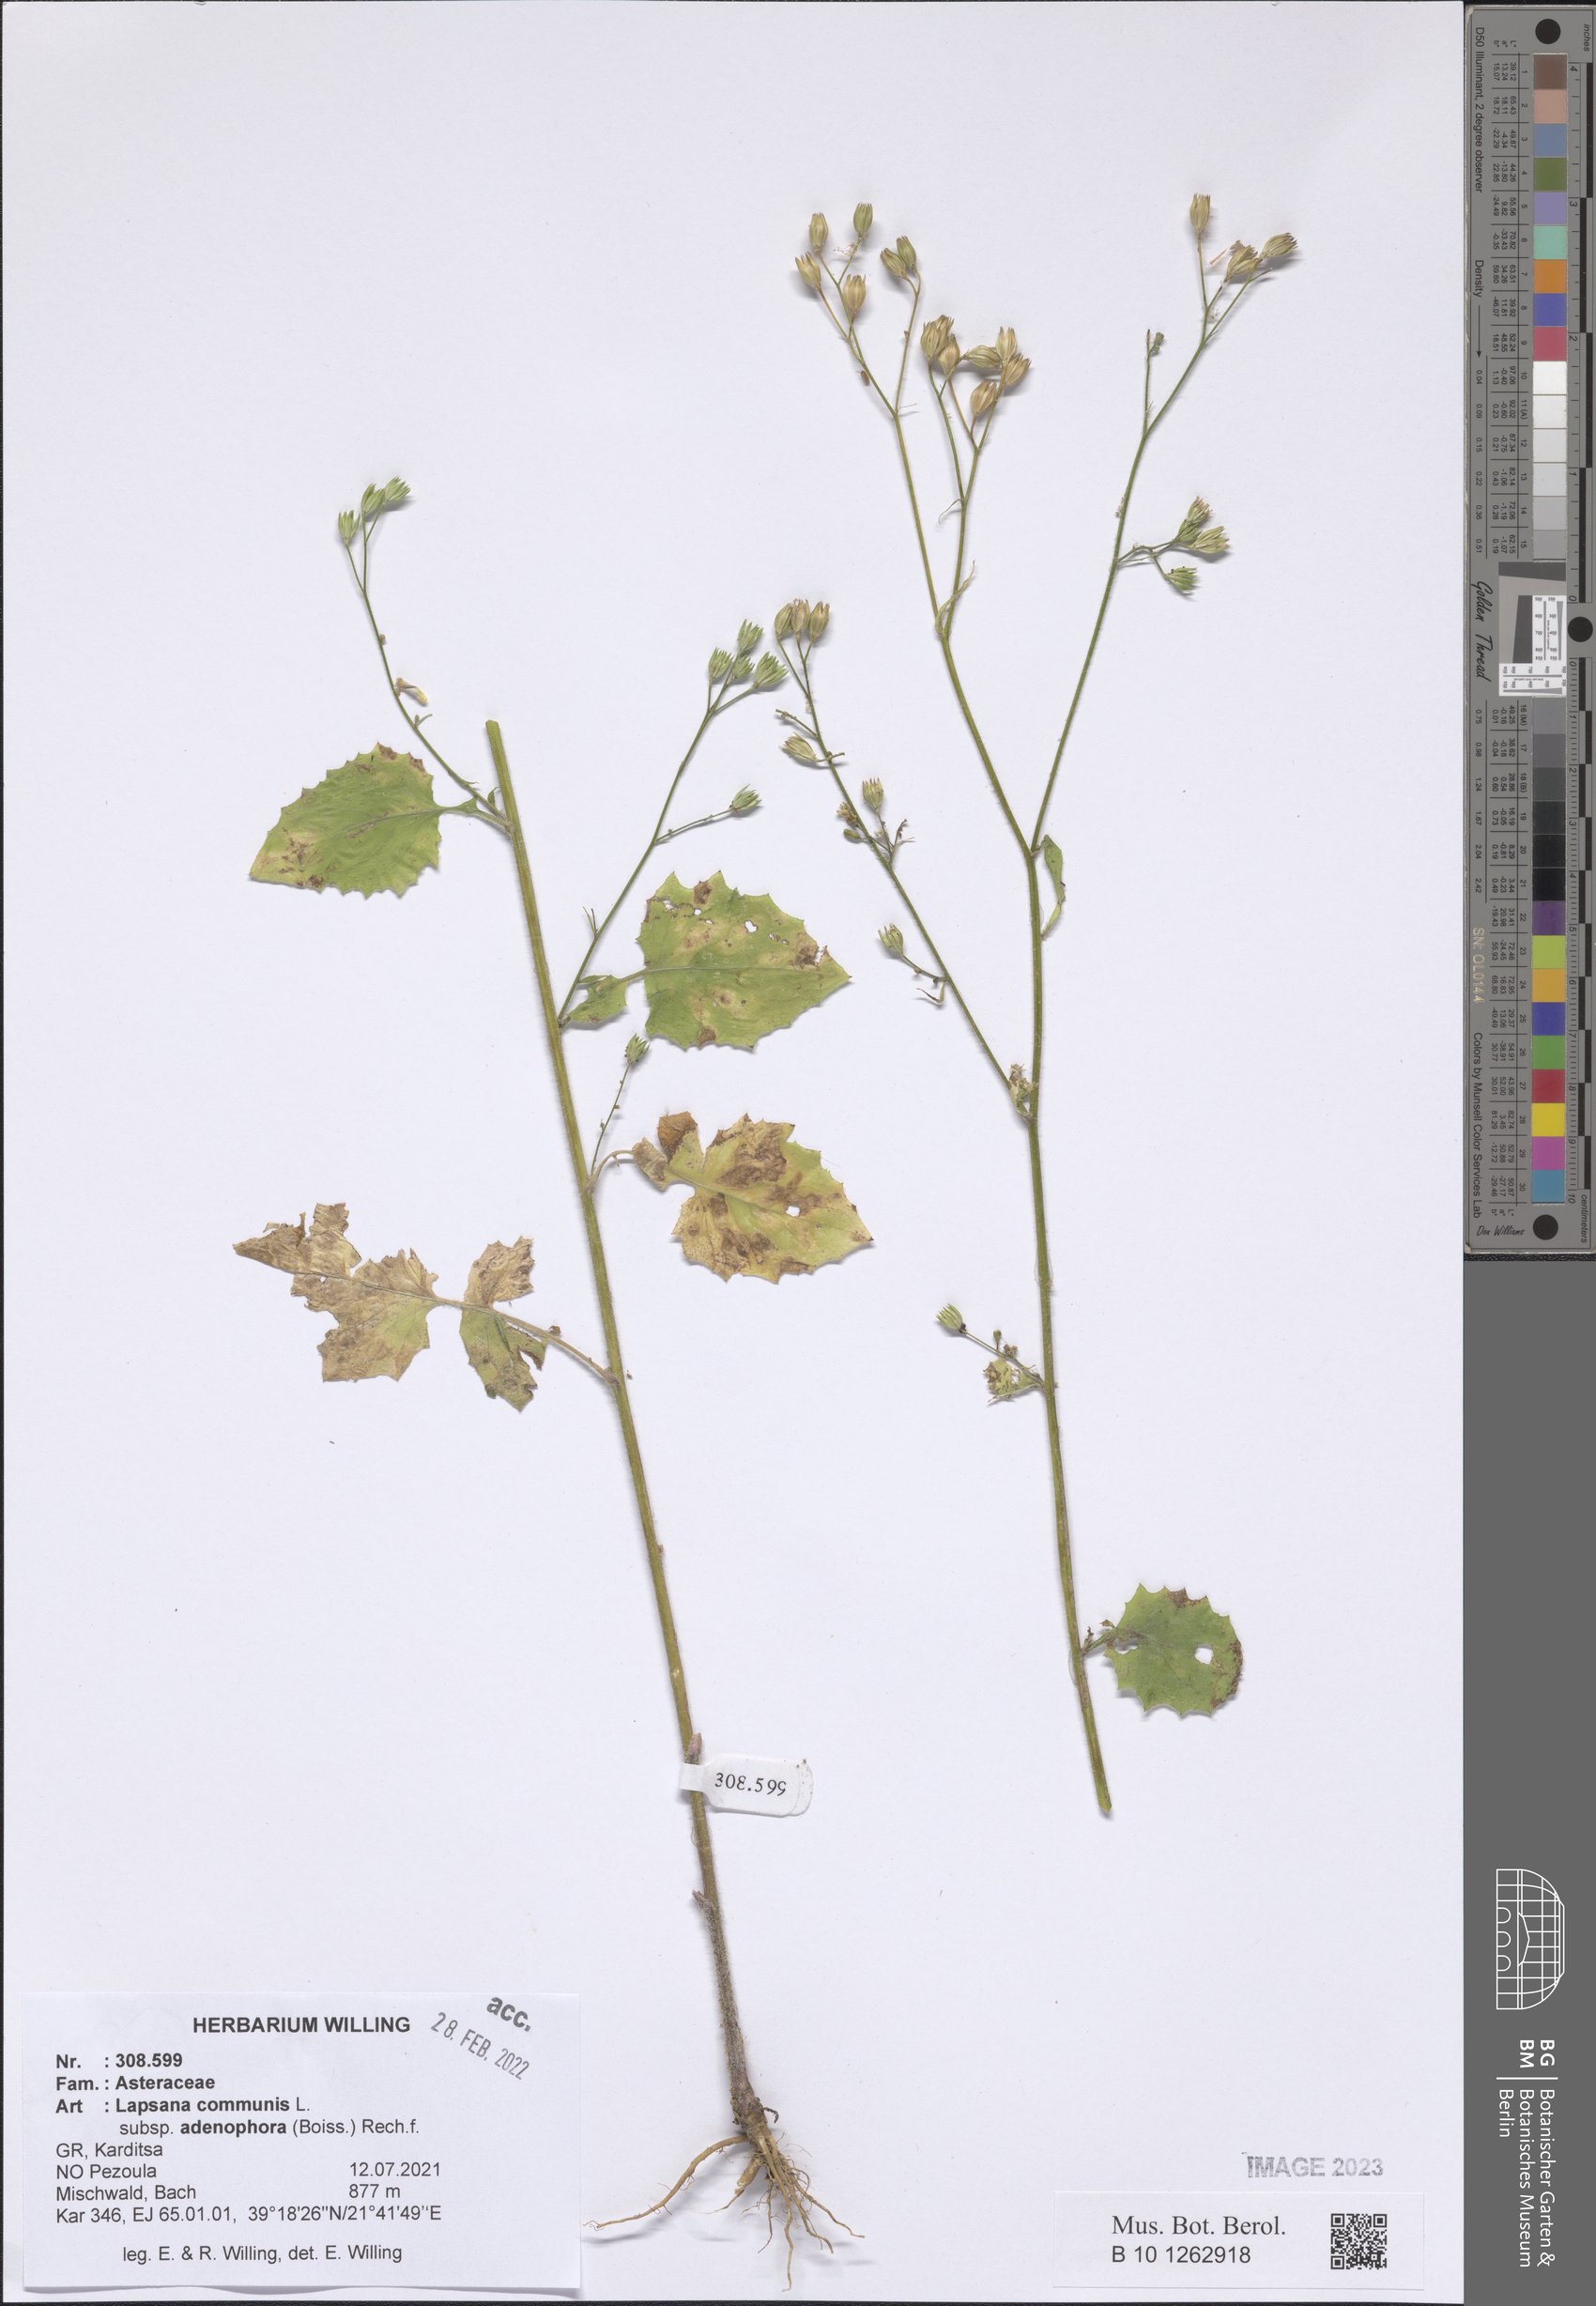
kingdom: Plantae
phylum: Tracheophyta
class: Magnoliopsida
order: Asterales
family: Asteraceae
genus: Lapsana
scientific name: Lapsana communis
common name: Nipplewort
